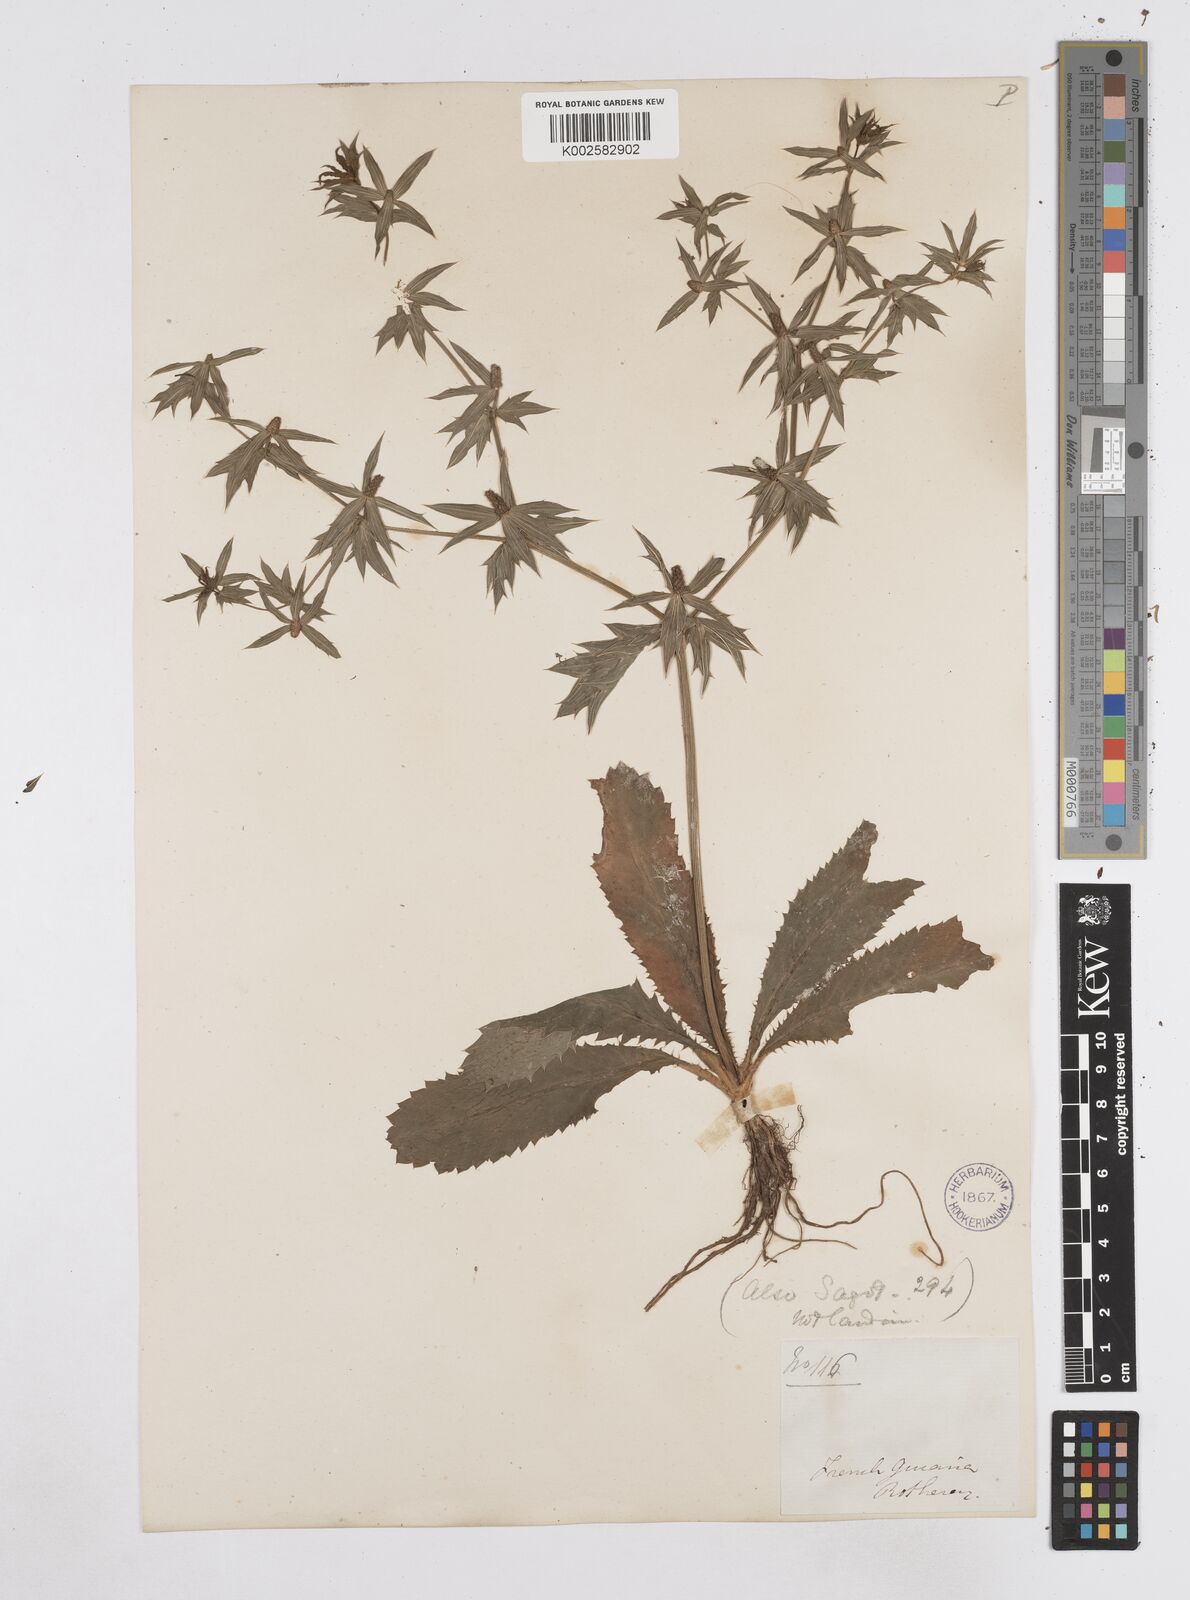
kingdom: Plantae
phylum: Tracheophyta
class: Magnoliopsida
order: Apiales
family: Apiaceae
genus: Eryngium
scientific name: Eryngium foetidum
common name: Fitweed
